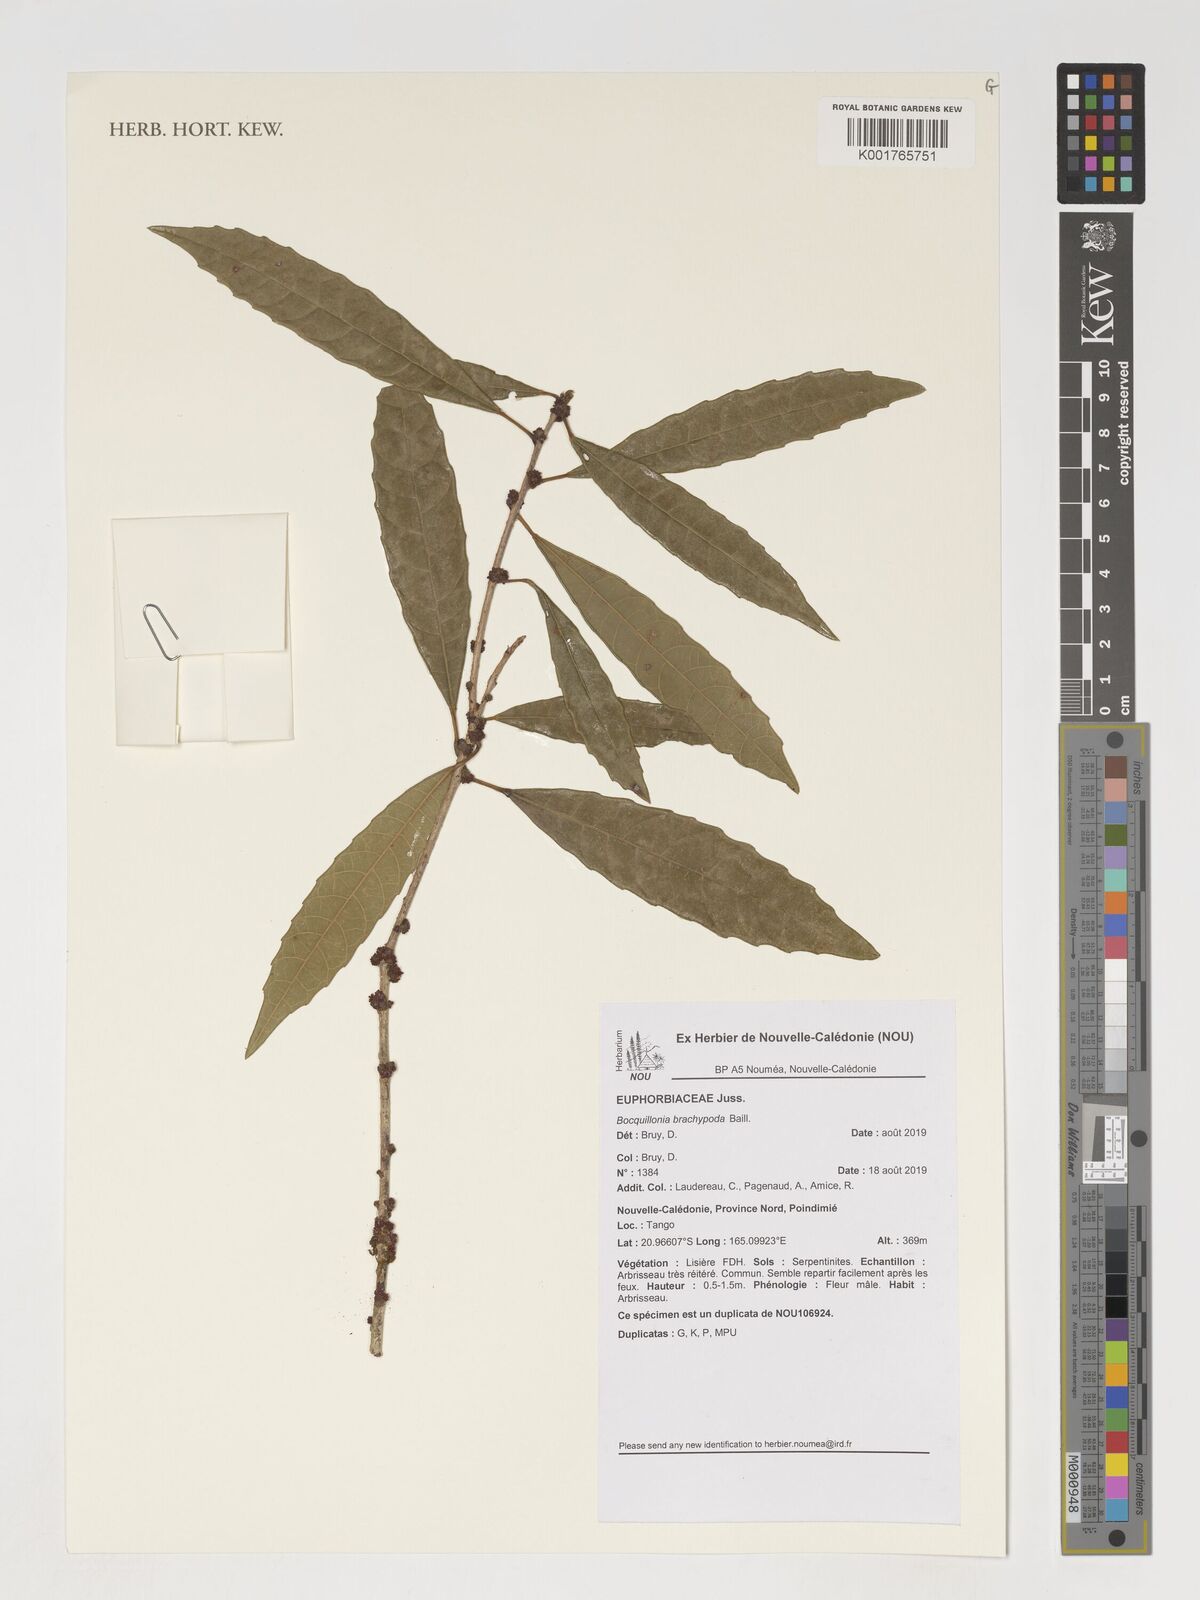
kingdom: Plantae
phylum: Tracheophyta
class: Magnoliopsida
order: Malpighiales
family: Euphorbiaceae
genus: Bocquillonia
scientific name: Bocquillonia brachypoda
